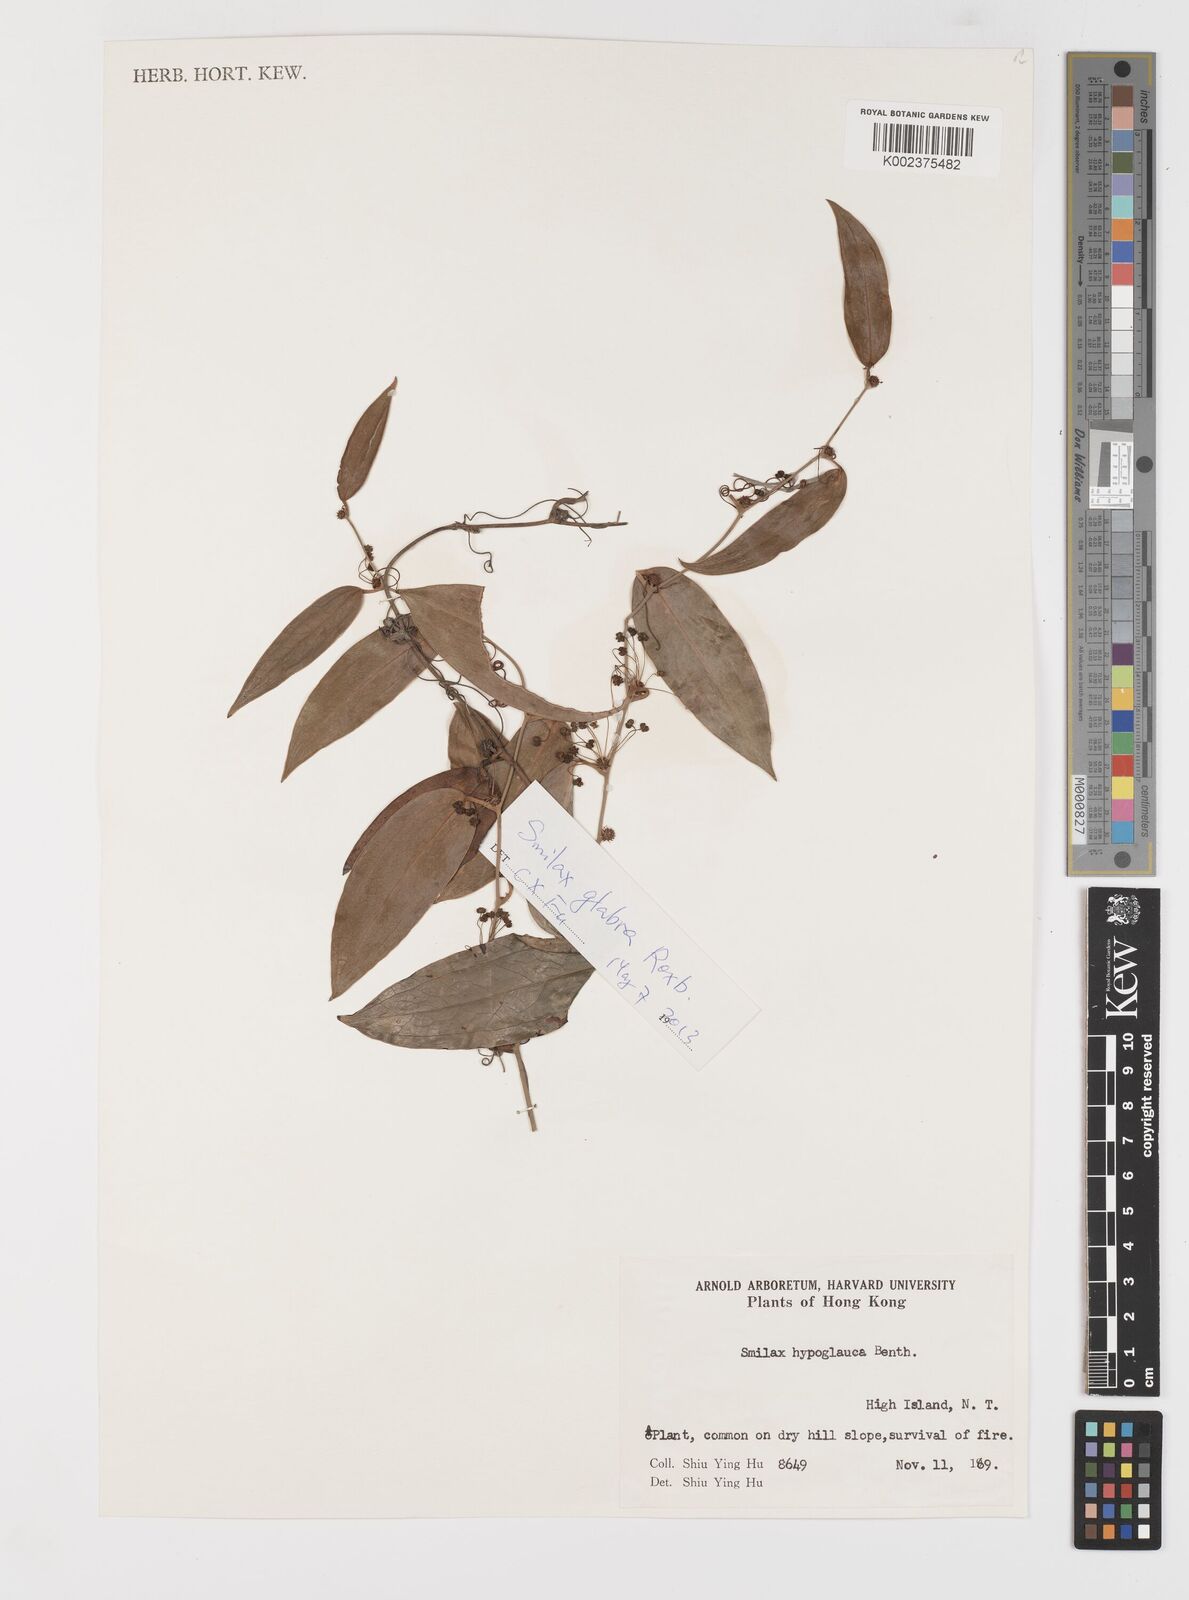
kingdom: Plantae
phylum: Tracheophyta
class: Liliopsida
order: Liliales
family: Smilacaceae
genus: Smilax
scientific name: Smilax glabra
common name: Chinese smilax
